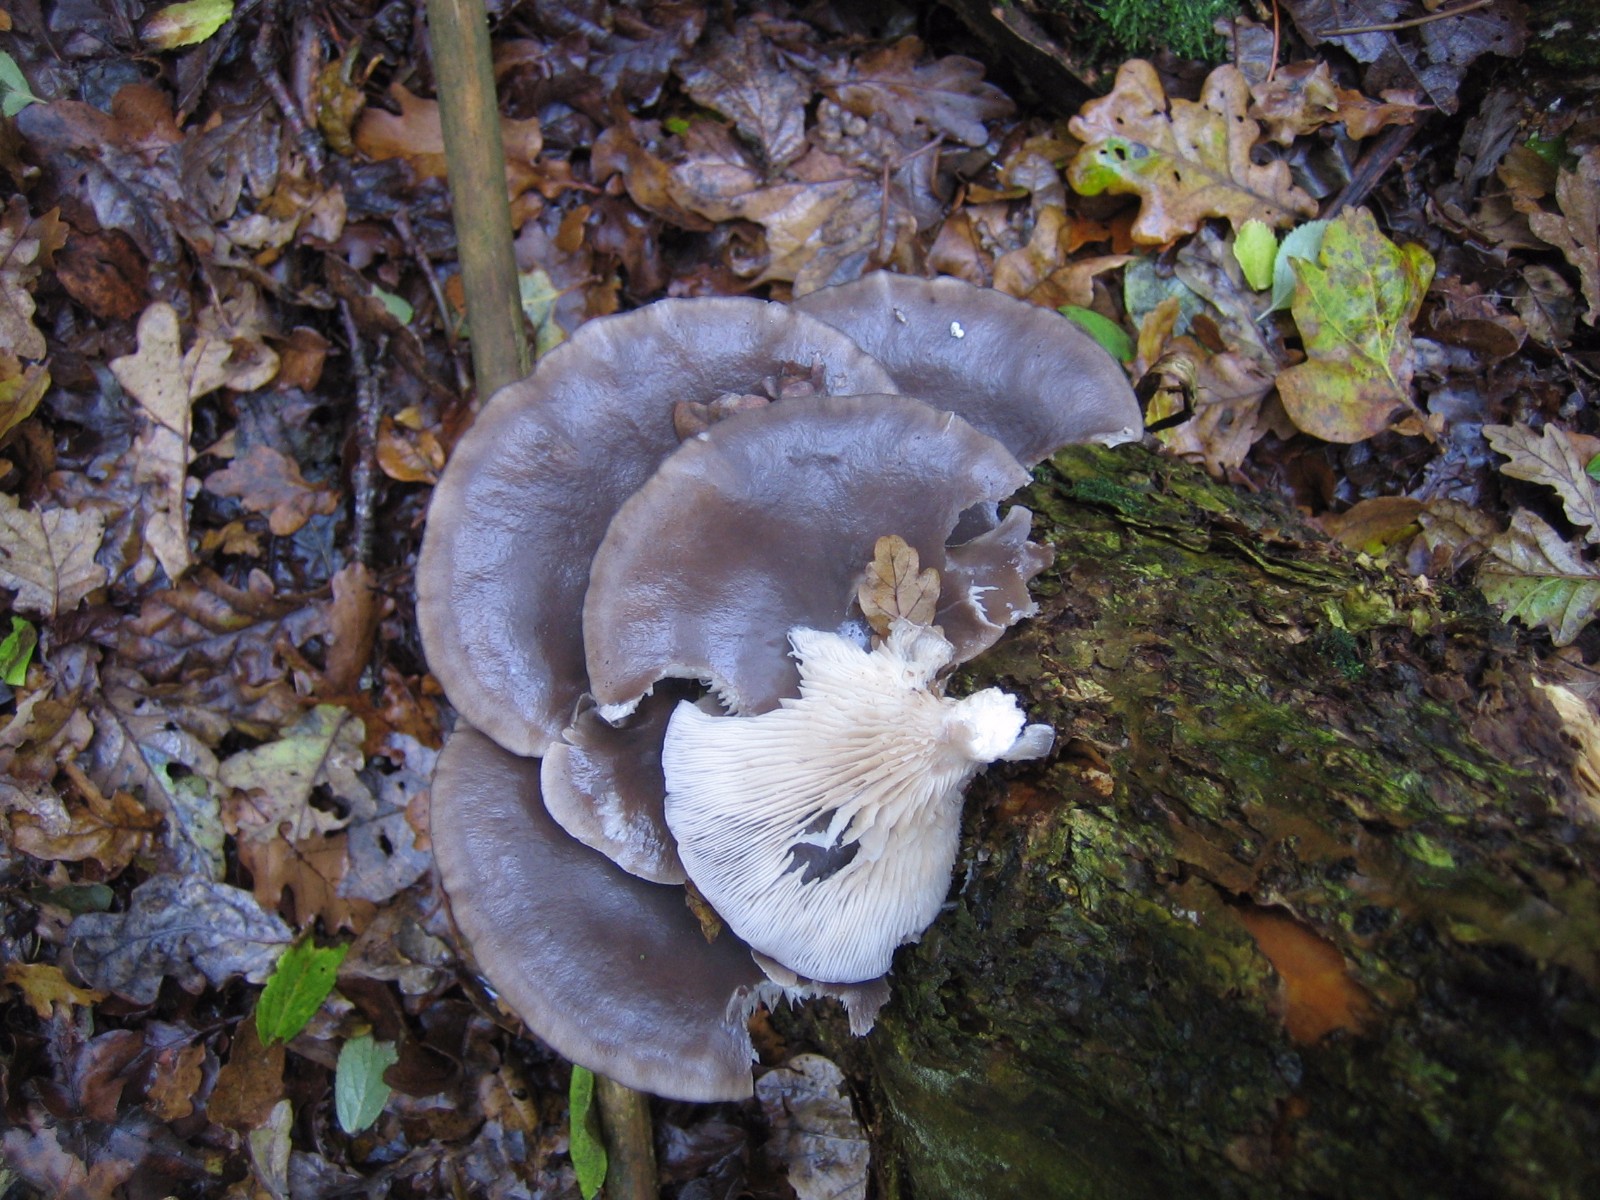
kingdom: Fungi
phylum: Basidiomycota
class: Agaricomycetes
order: Agaricales
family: Pleurotaceae
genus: Pleurotus
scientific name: Pleurotus ostreatus
